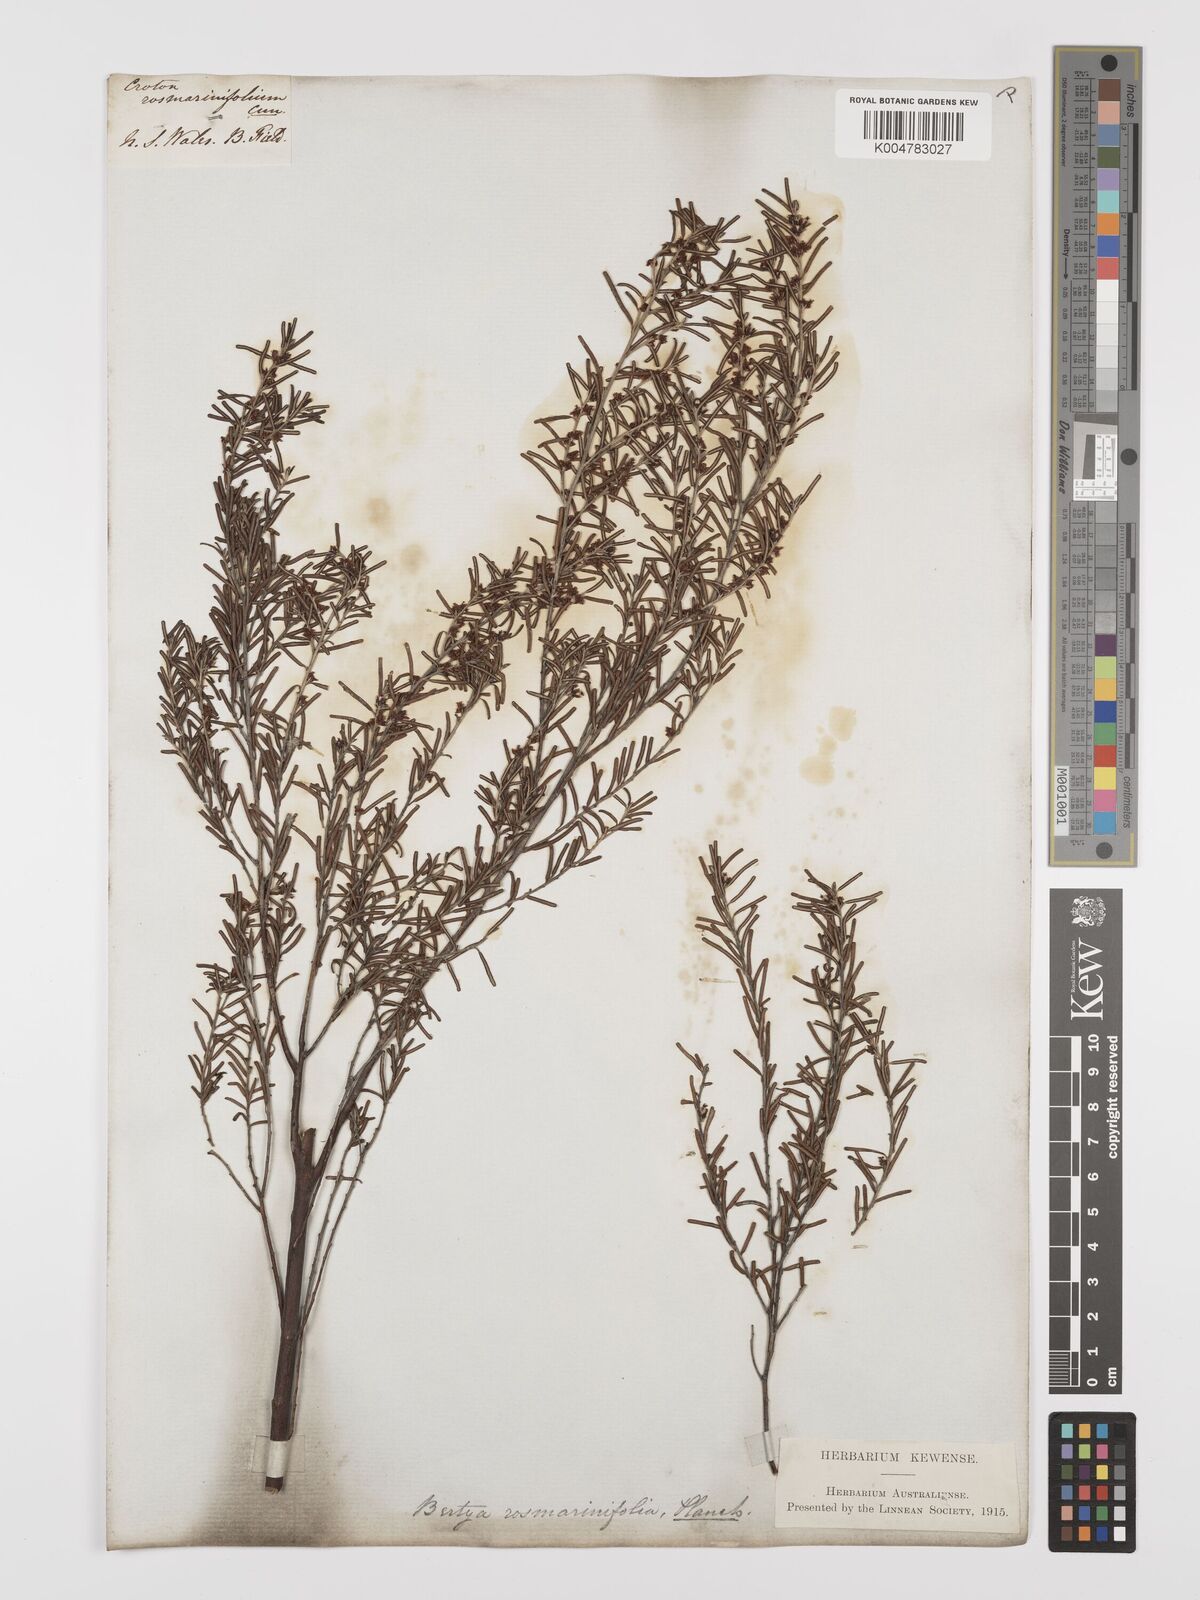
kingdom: Plantae
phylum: Tracheophyta
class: Magnoliopsida
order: Malpighiales
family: Euphorbiaceae
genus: Bertya
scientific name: Bertya rosmarinifolia
